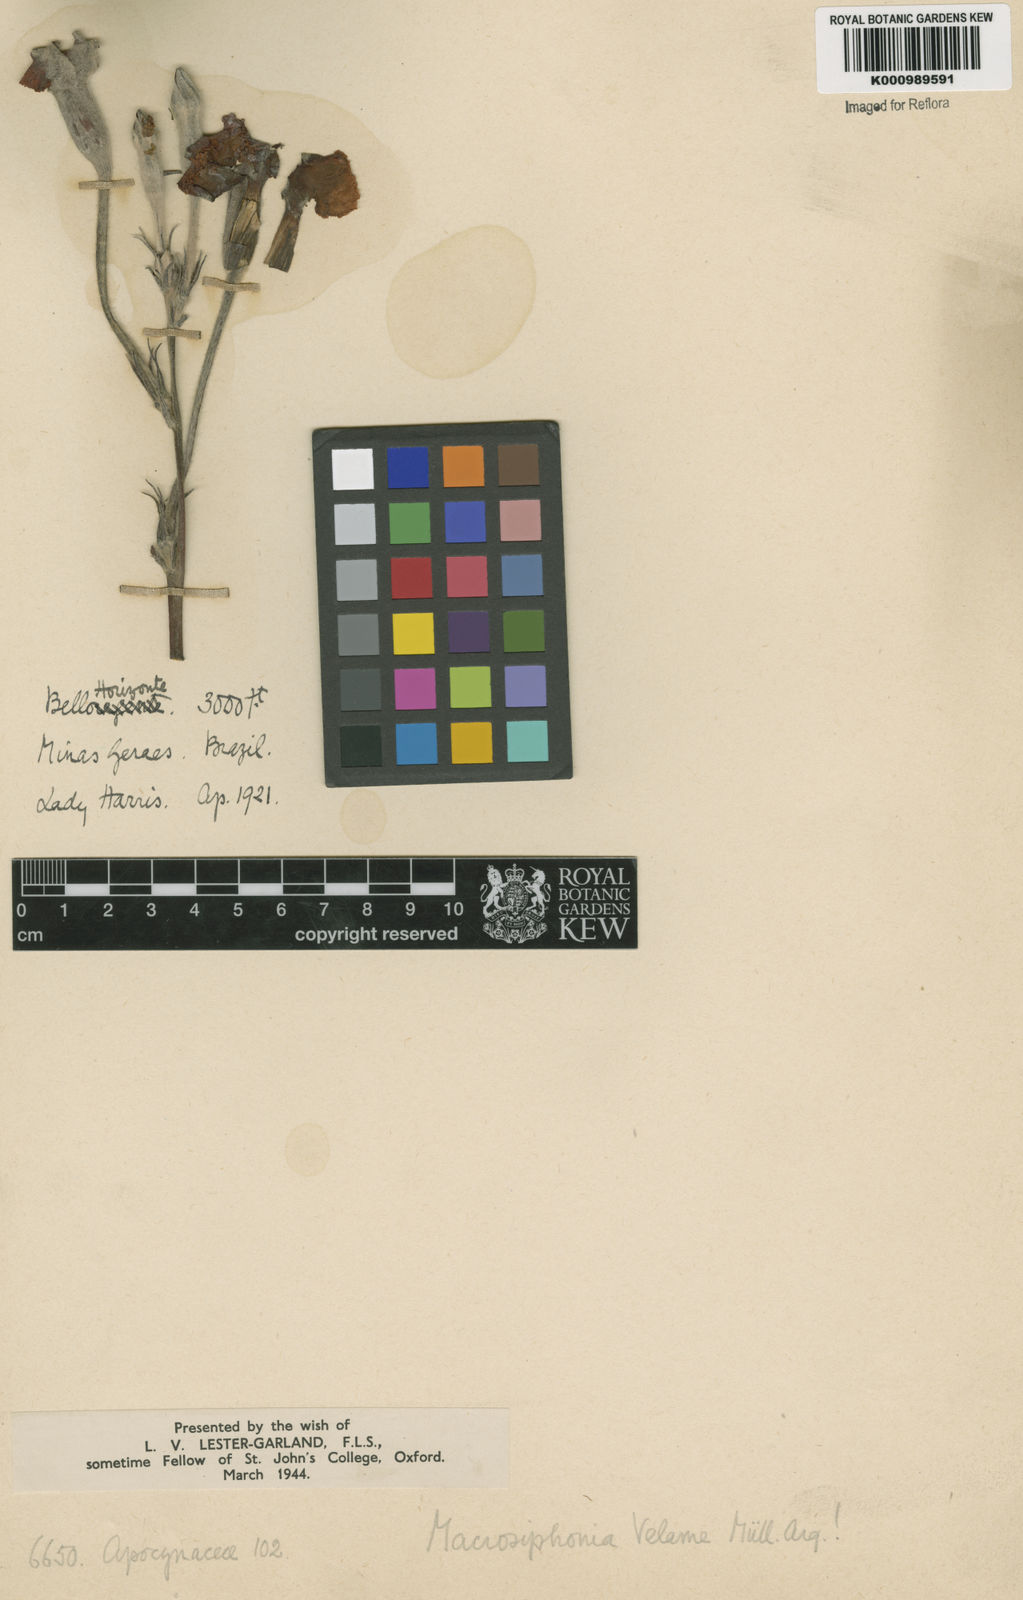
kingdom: Plantae
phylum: Tracheophyta
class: Magnoliopsida
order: Gentianales
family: Apocynaceae
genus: Mandevilla
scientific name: Mandevilla velame
